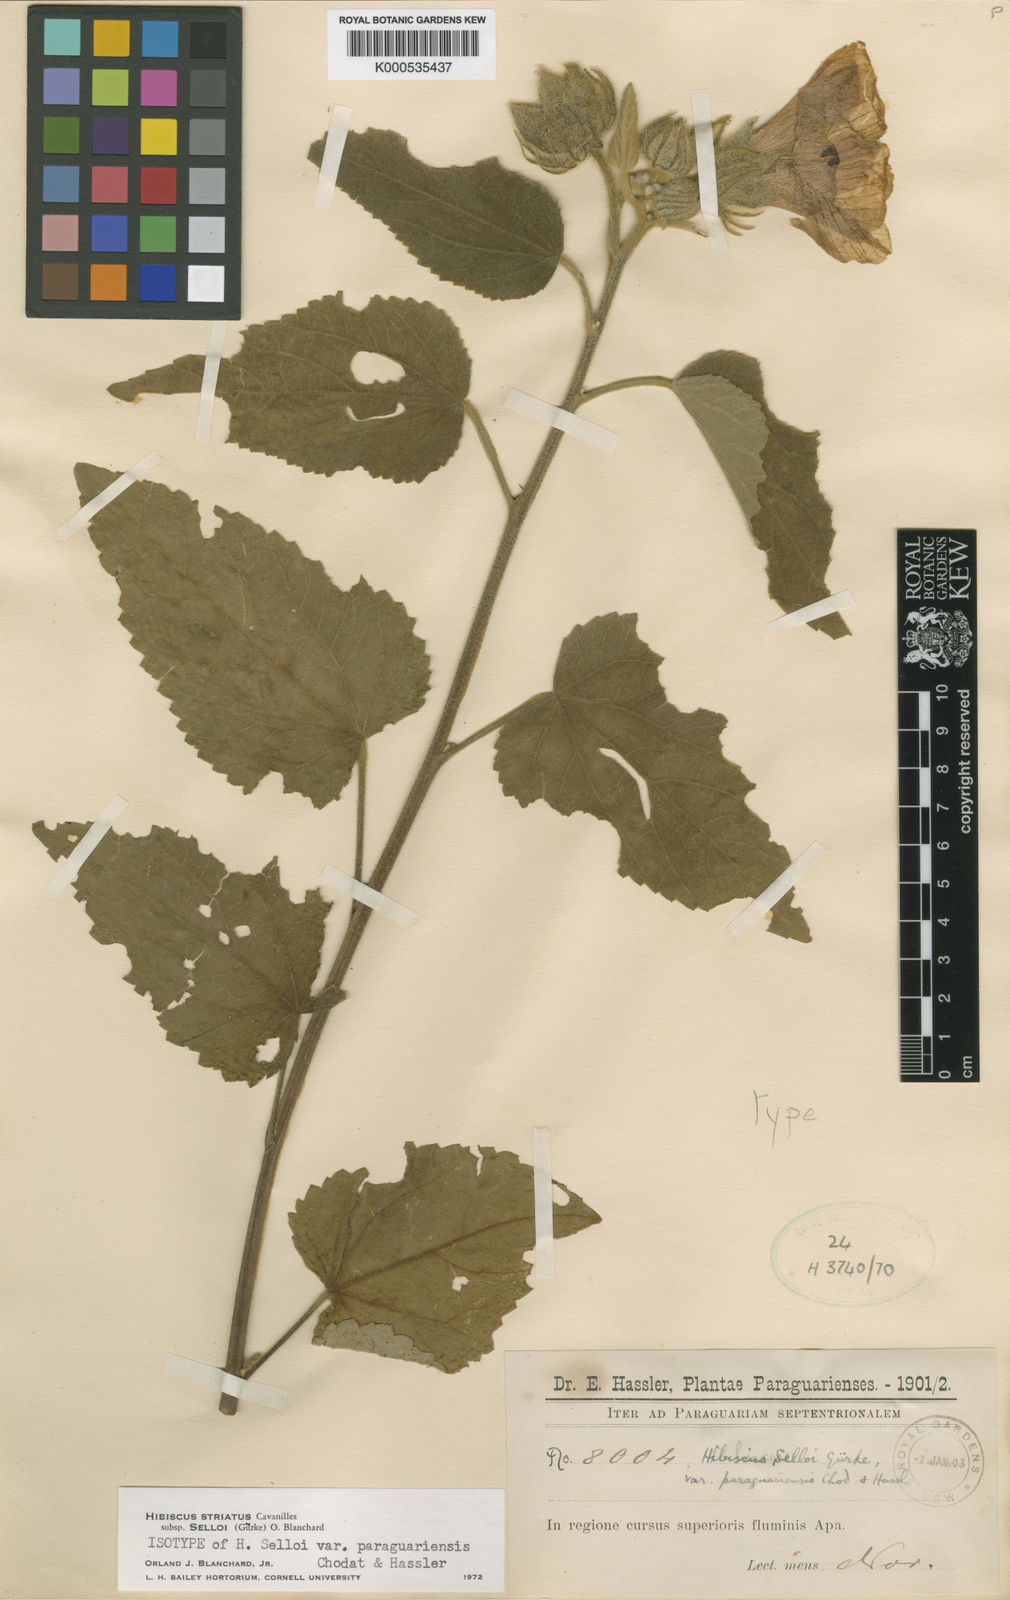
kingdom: Plantae
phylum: Tracheophyta
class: Magnoliopsida
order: Malvales
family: Malvaceae
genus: Hibiscus
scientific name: Hibiscus striatus
